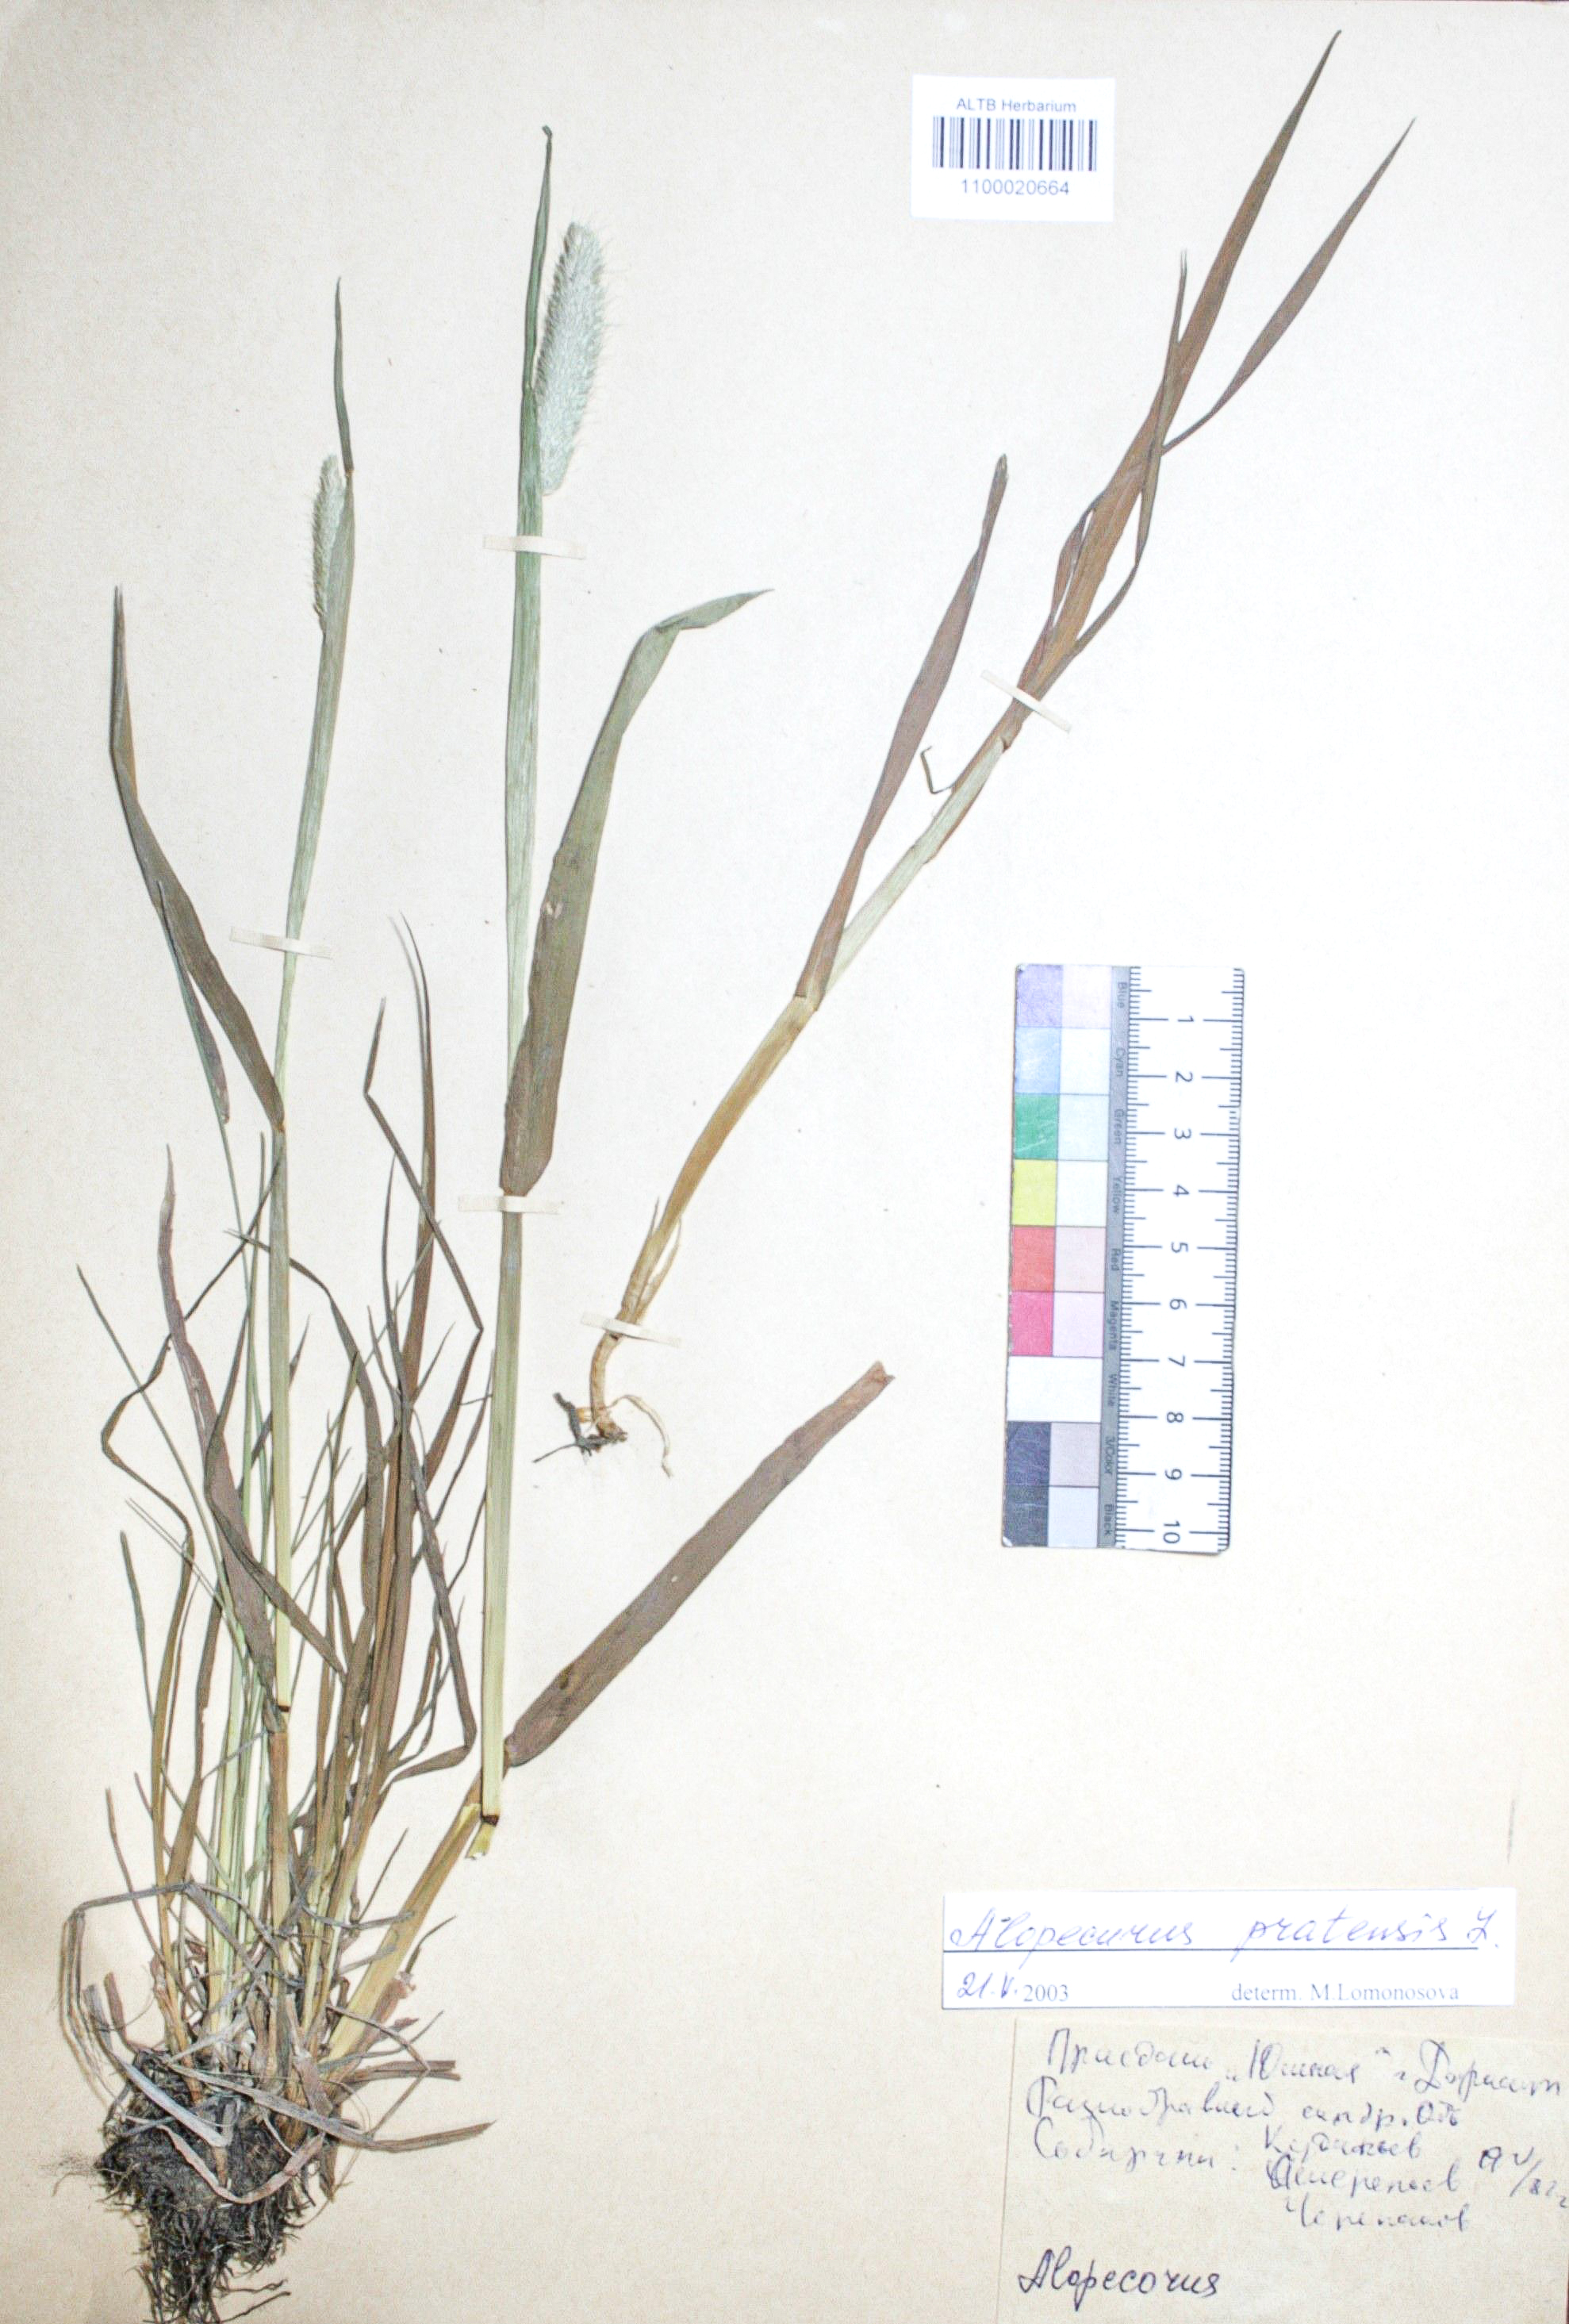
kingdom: Plantae
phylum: Tracheophyta
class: Liliopsida
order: Poales
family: Poaceae
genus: Alopecurus
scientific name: Alopecurus pratensis
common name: Meadow foxtail
